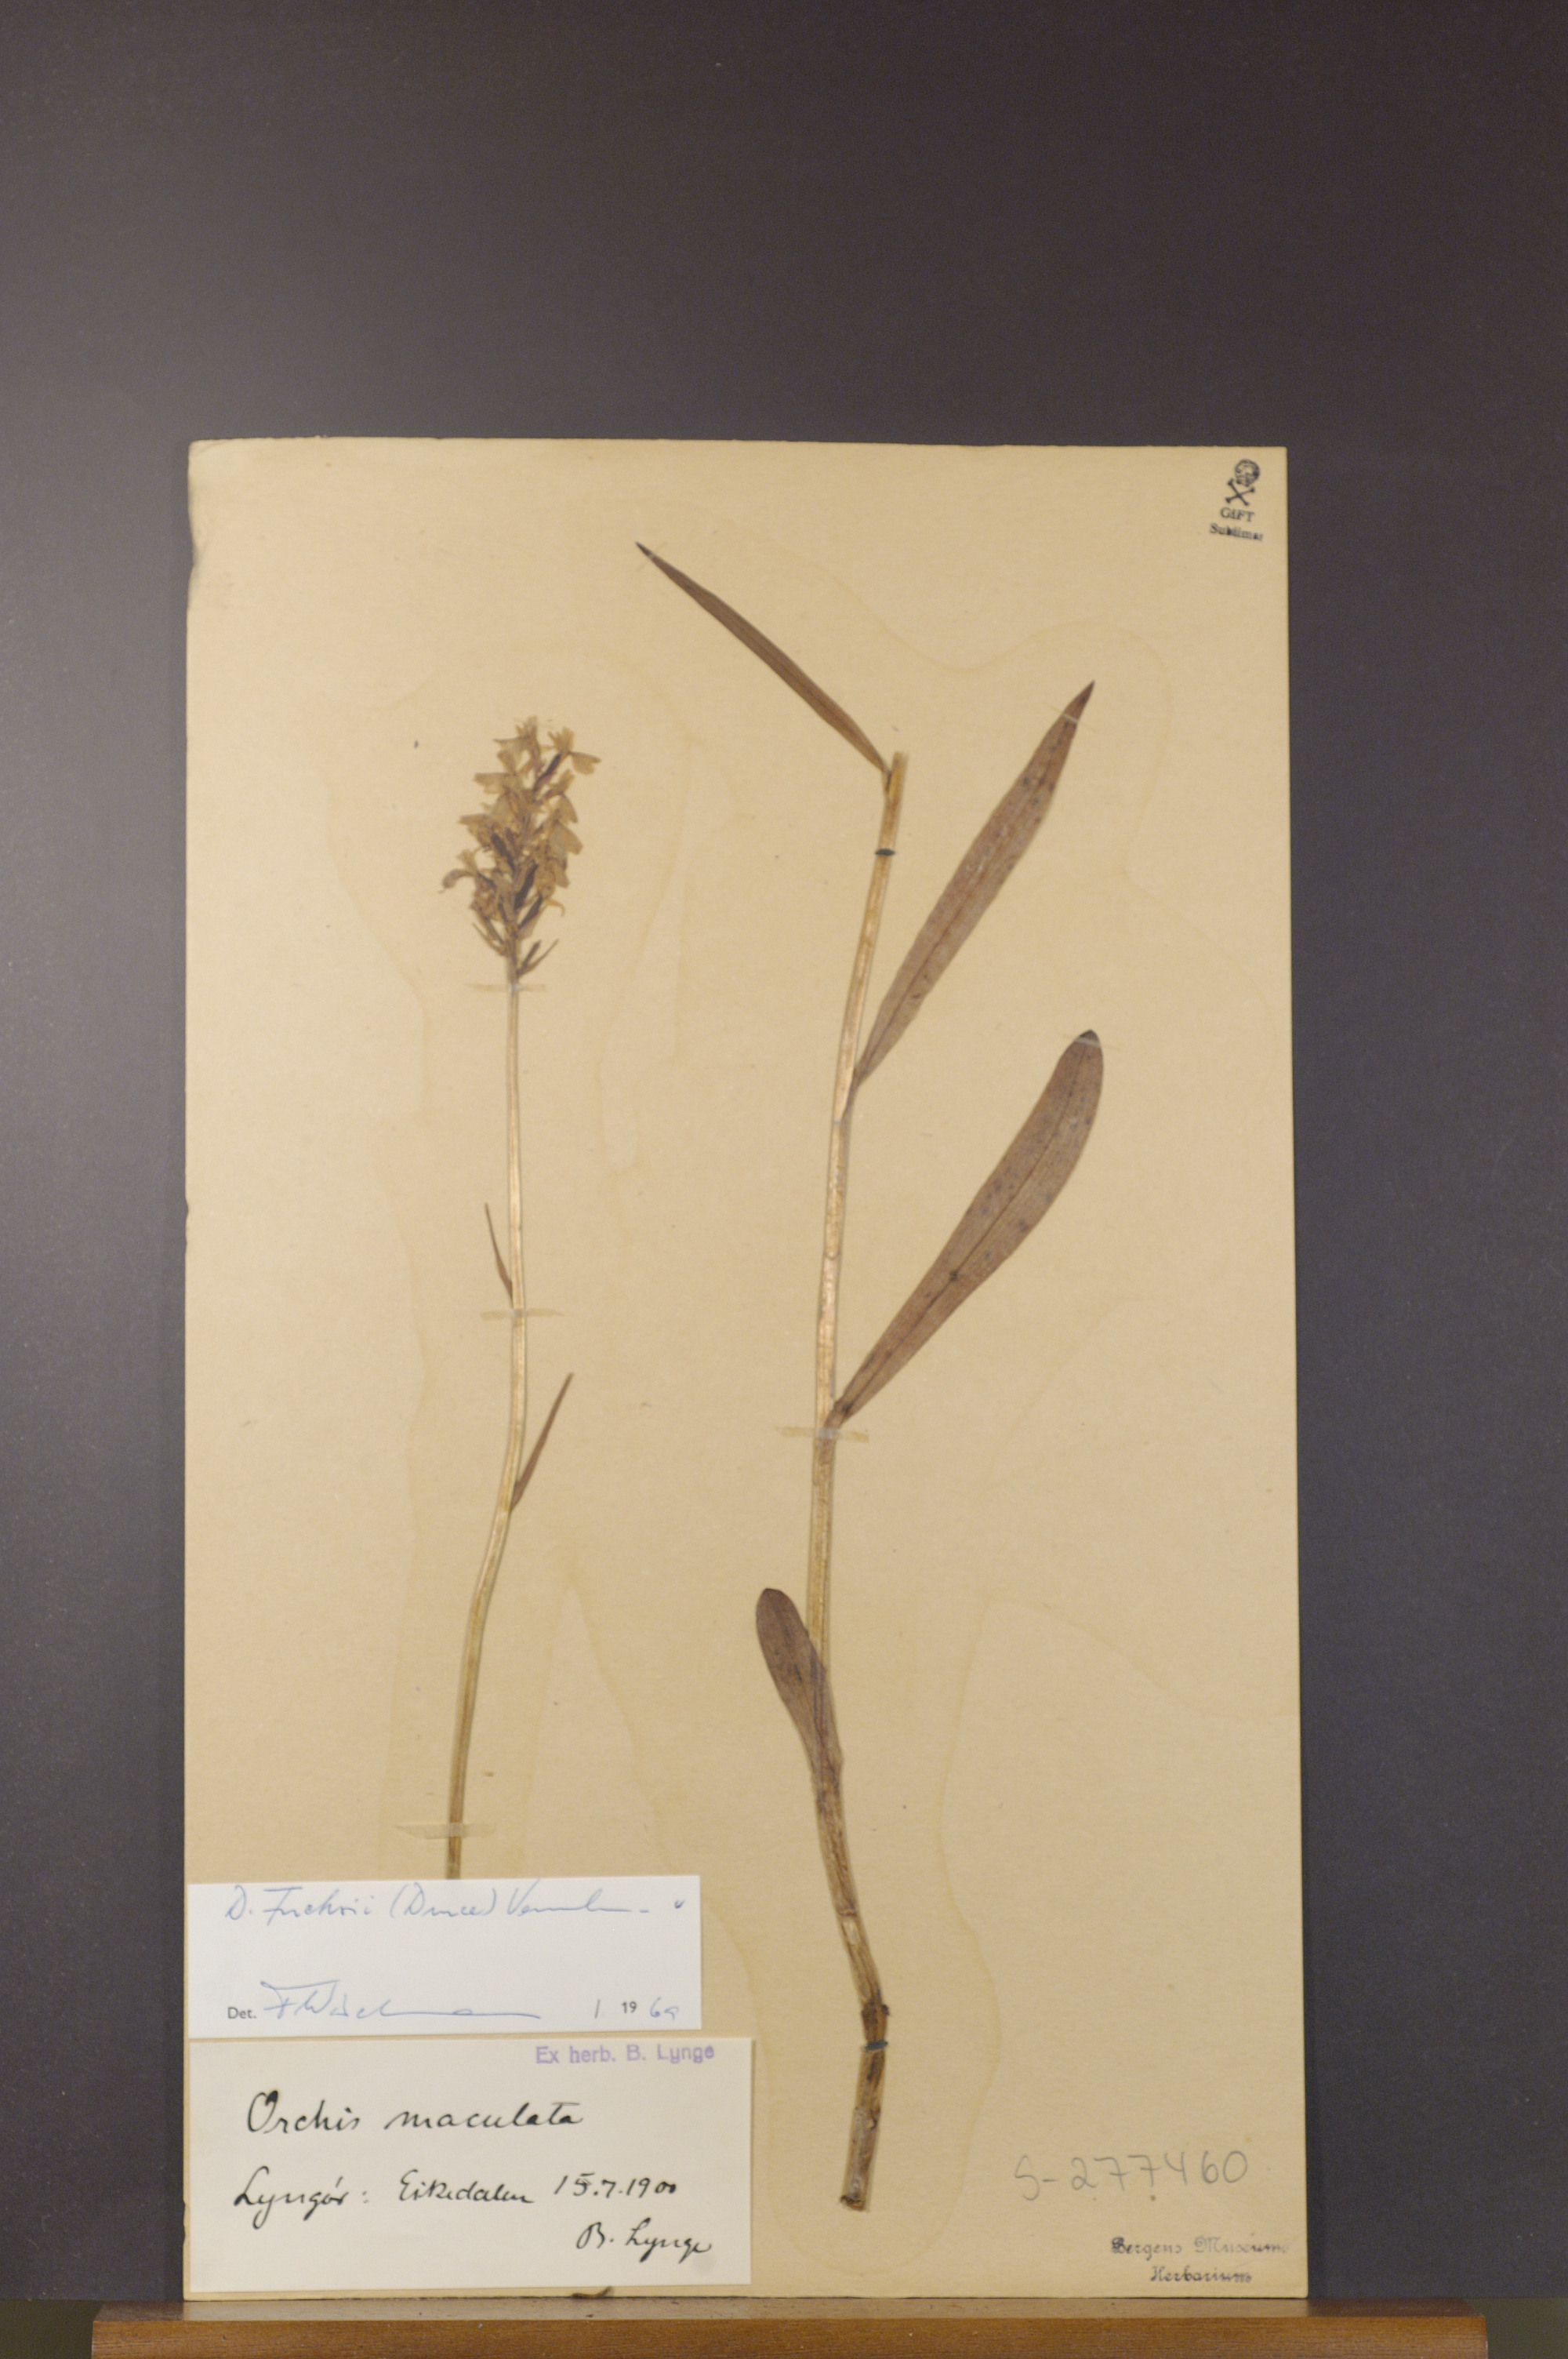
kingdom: Plantae
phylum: Tracheophyta
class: Liliopsida
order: Asparagales
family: Orchidaceae
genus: Dactylorhiza
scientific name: Dactylorhiza maculata
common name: Heath spotted-orchid
